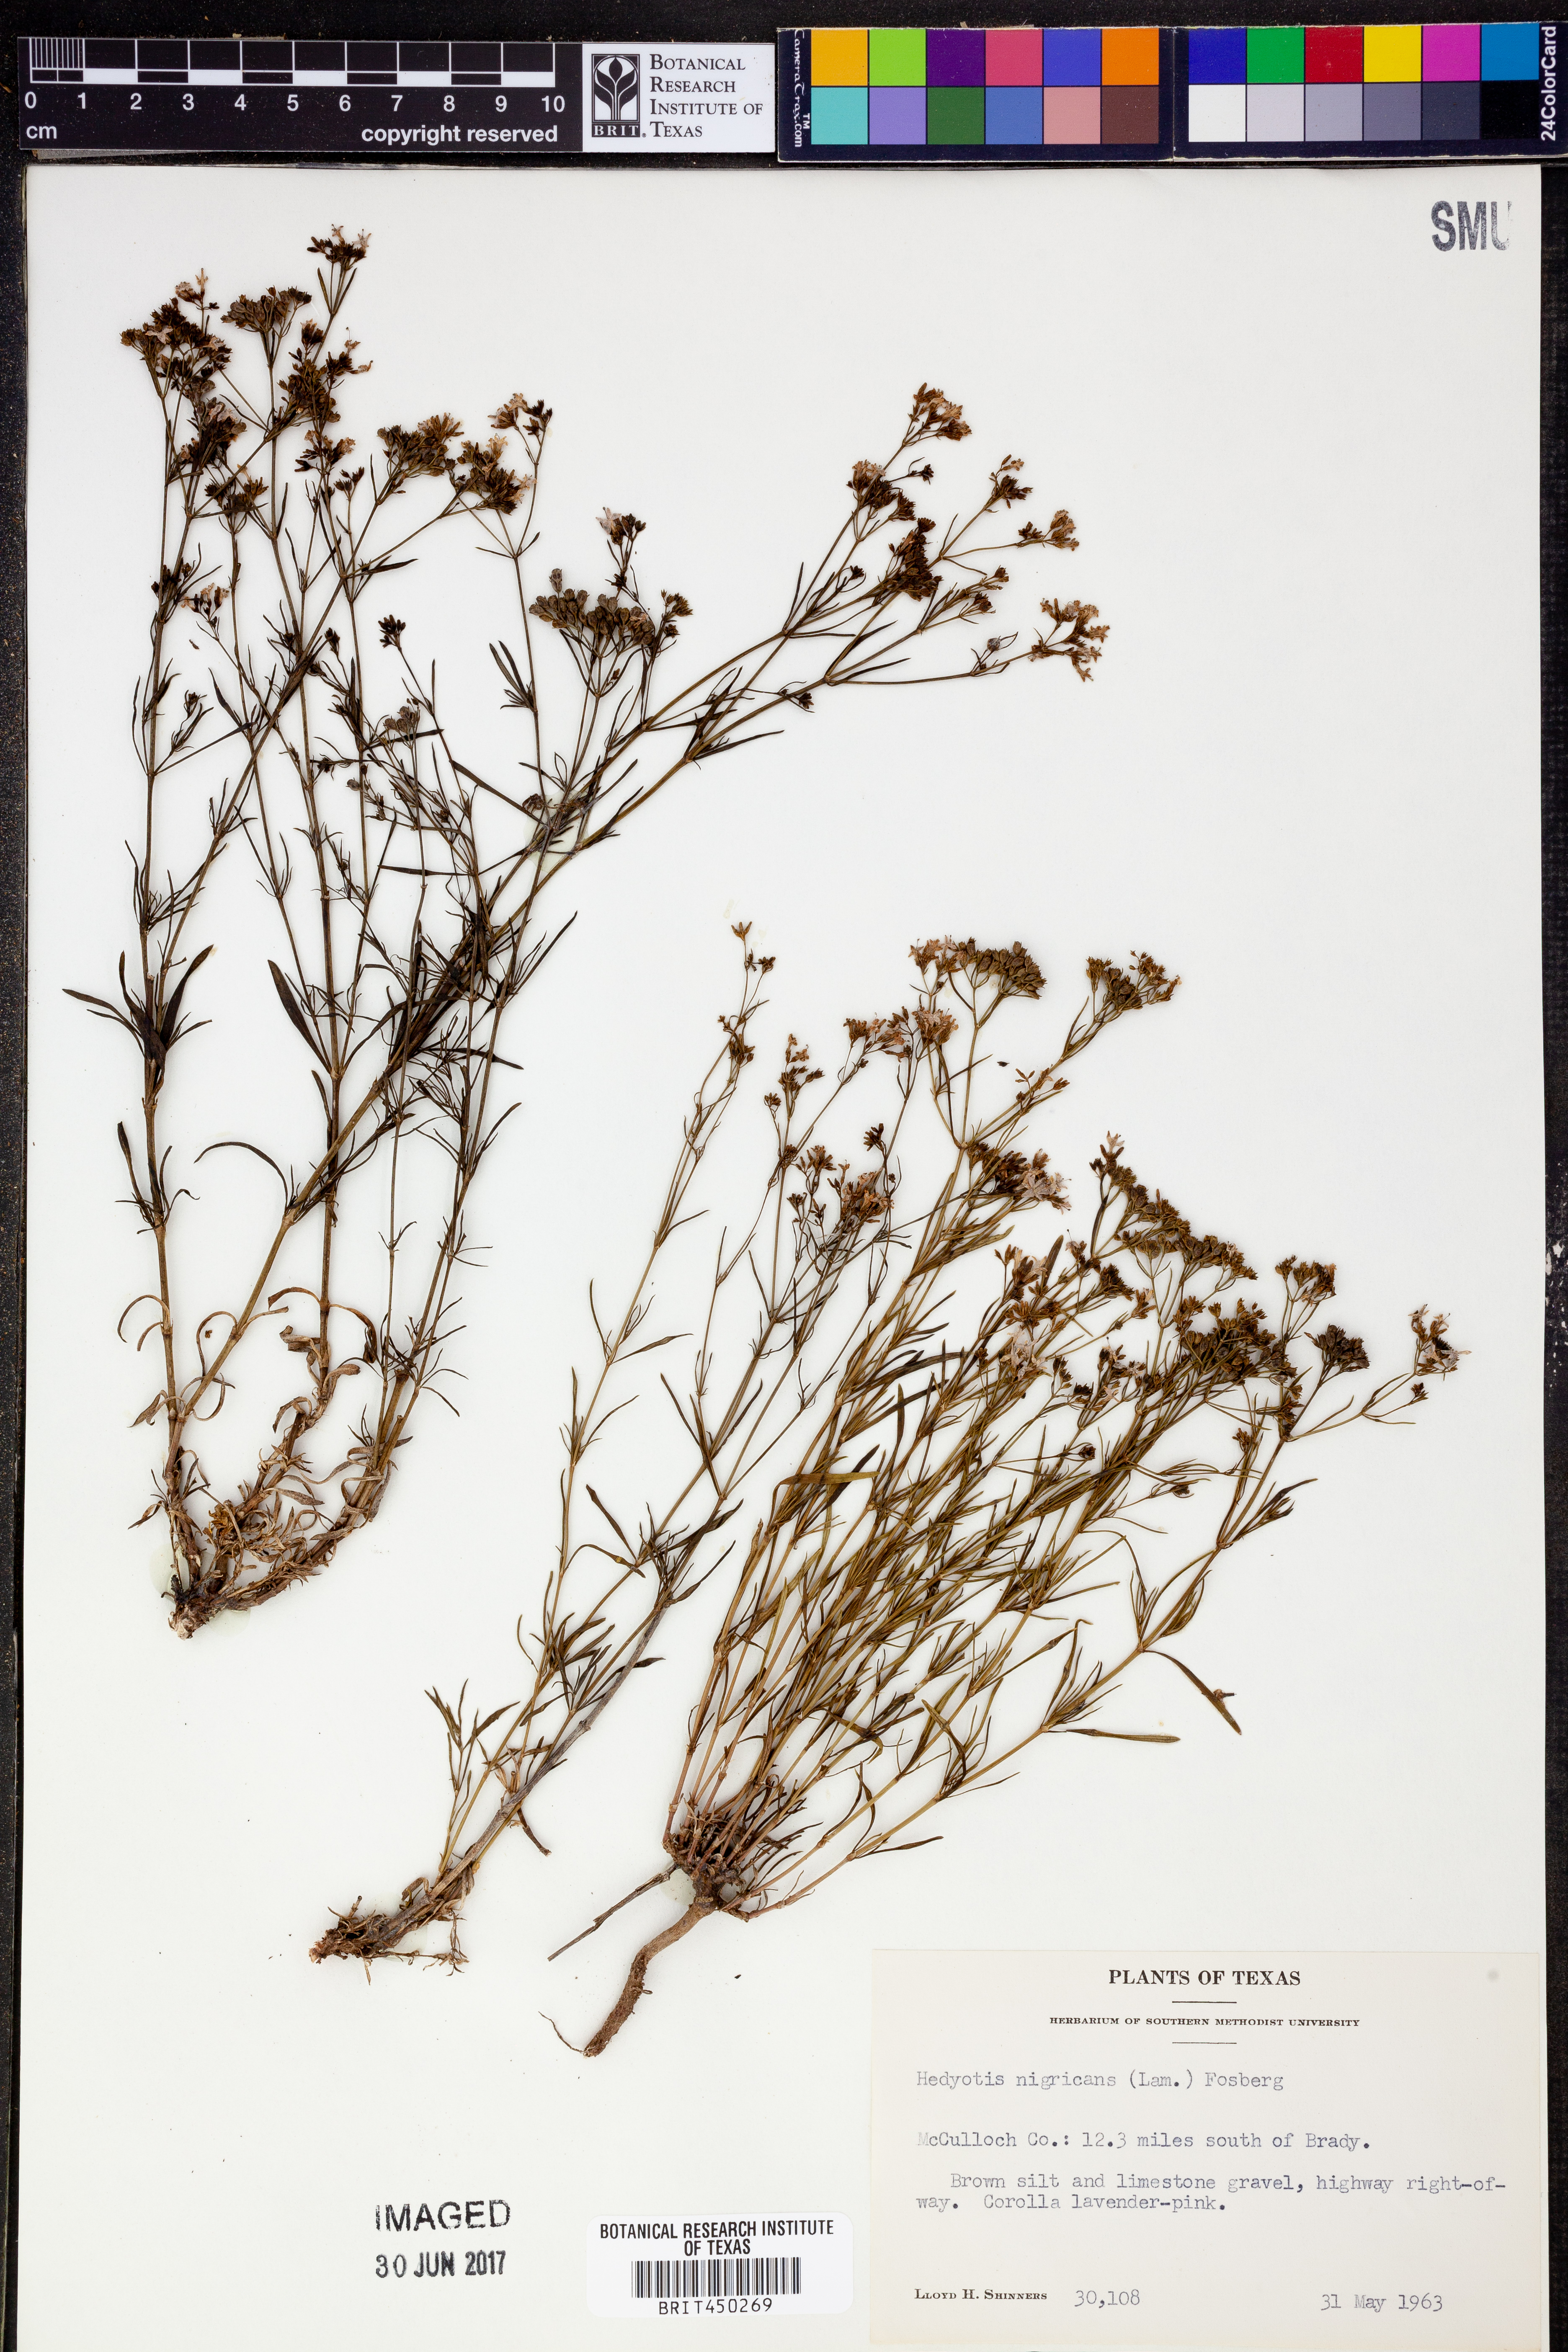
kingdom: Plantae
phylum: Tracheophyta
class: Magnoliopsida
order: Gentianales
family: Rubiaceae
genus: Stenaria
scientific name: Stenaria nigricans
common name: Diamondflowers
